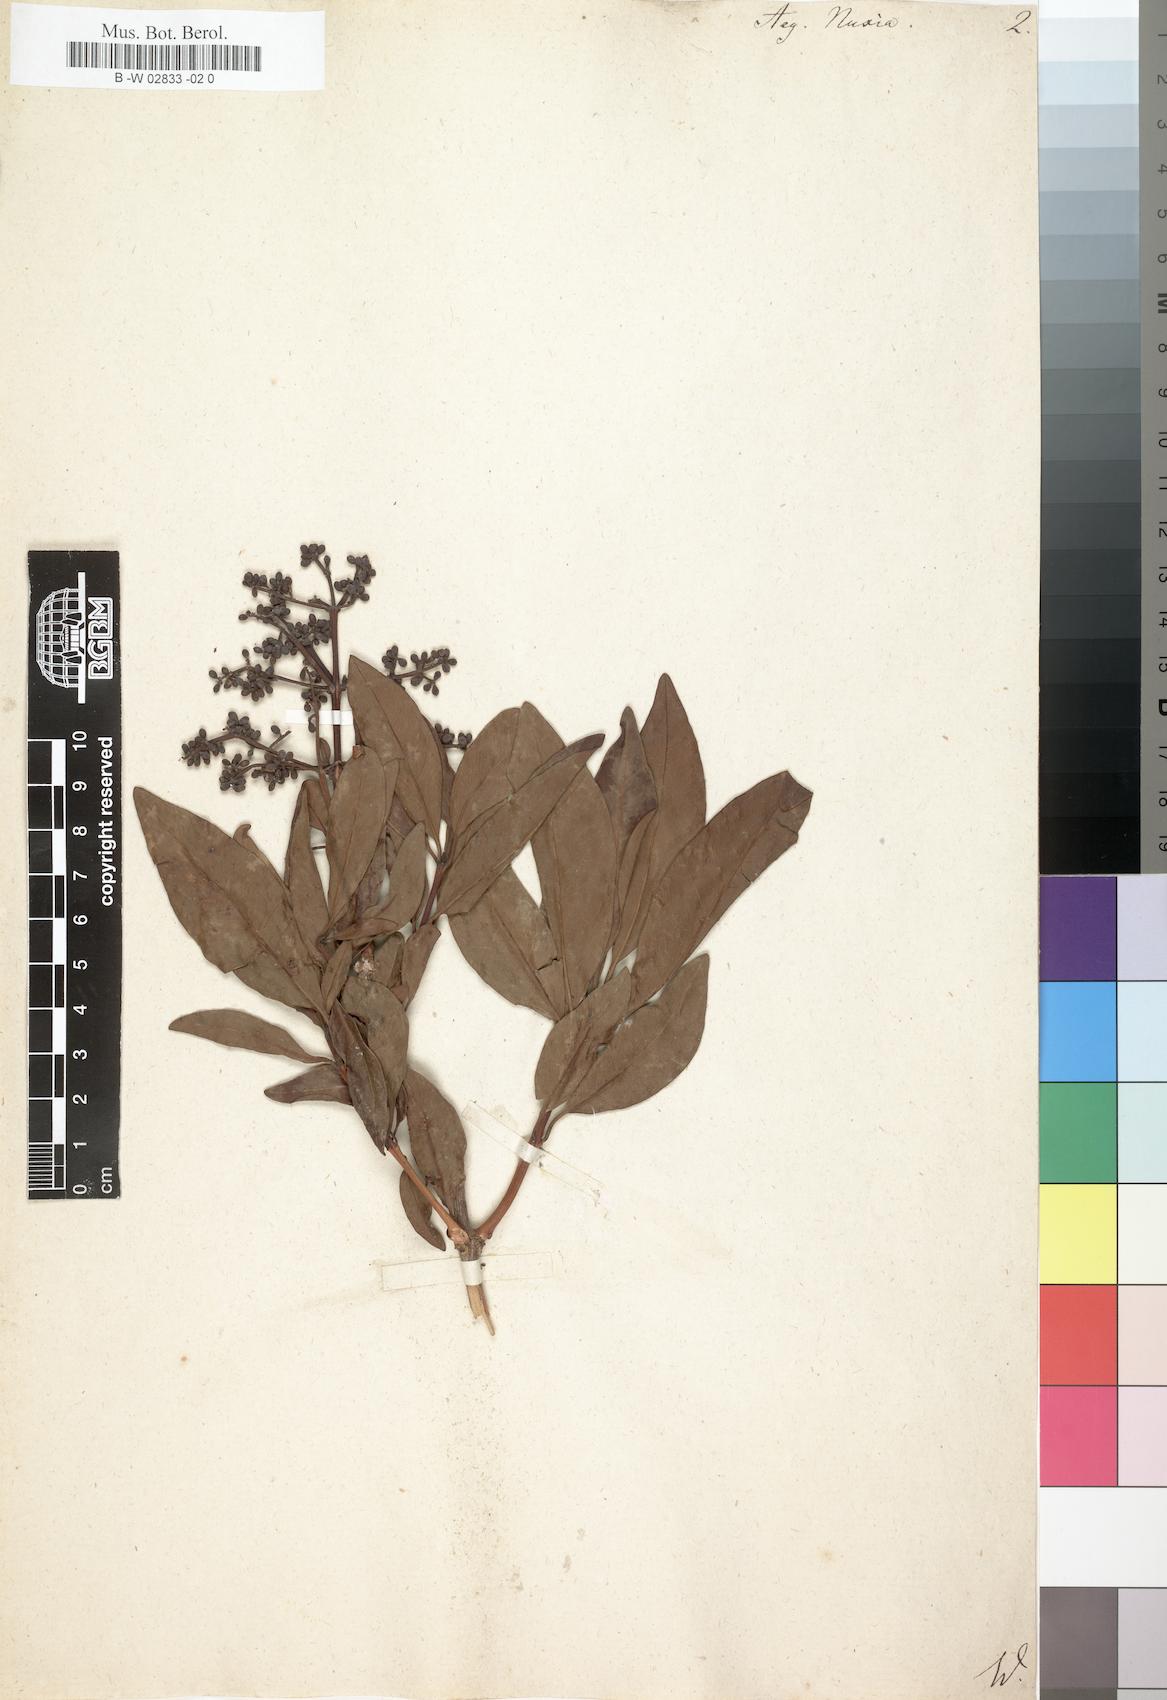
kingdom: Plantae
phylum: Tracheophyta
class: Magnoliopsida
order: Lamiales
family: Stilbaceae
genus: Nuxia
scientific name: Nuxia verticillata
